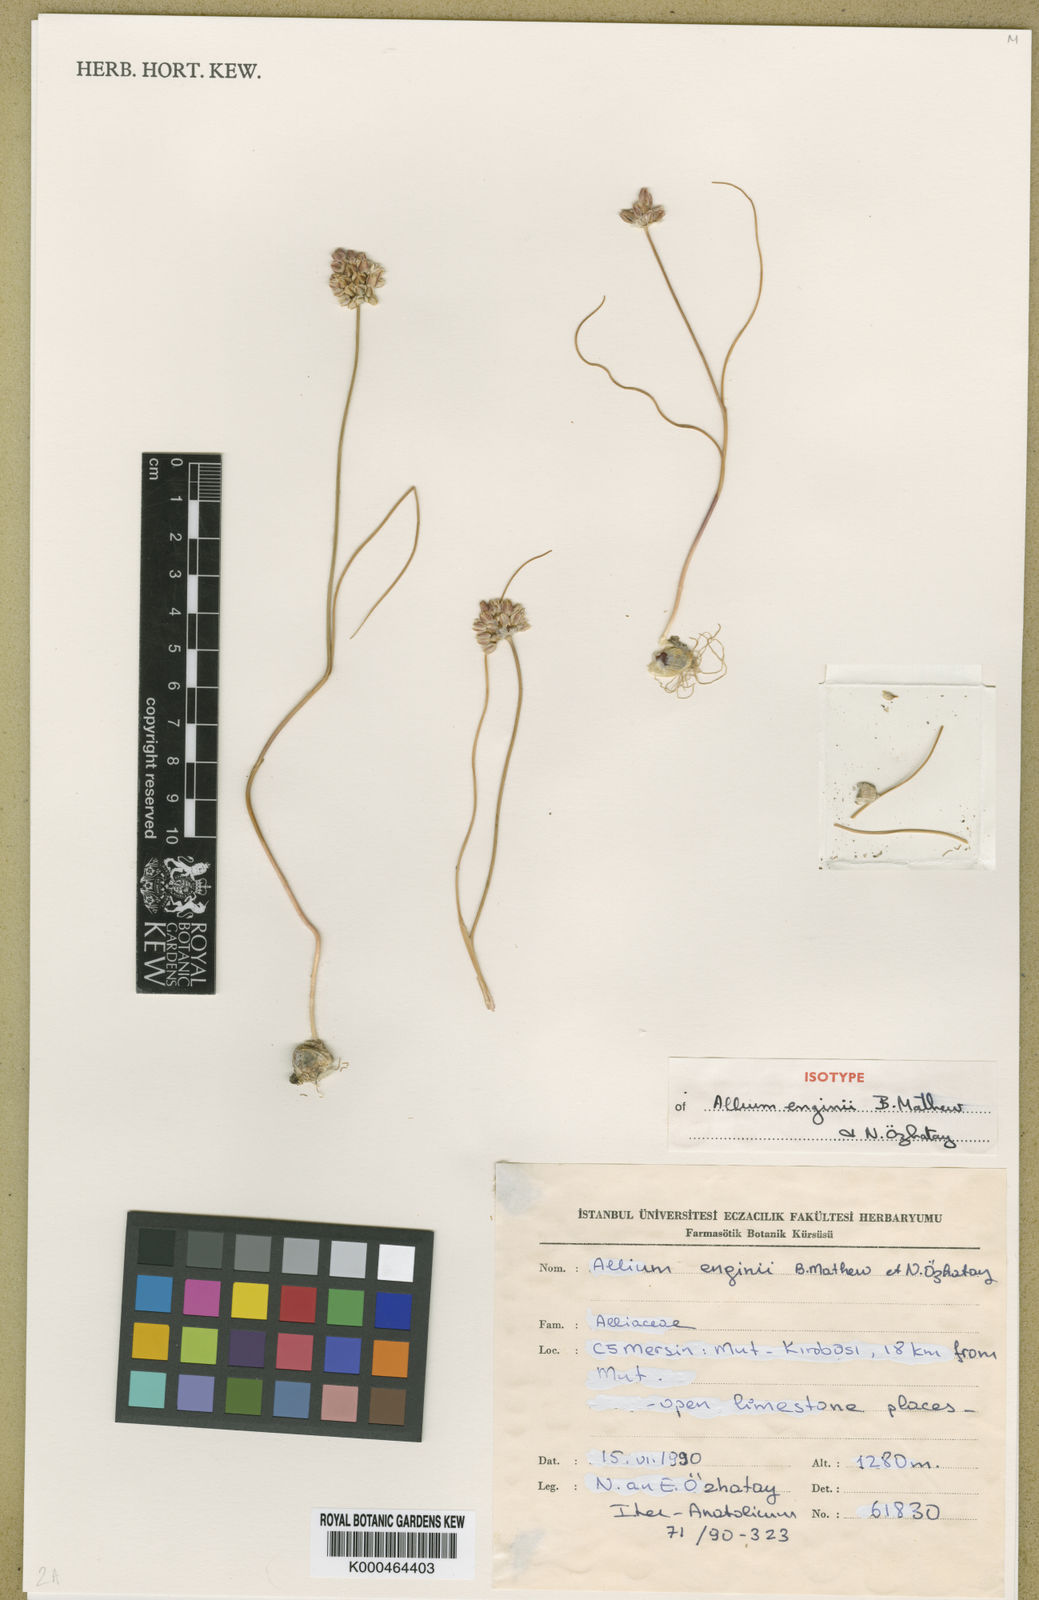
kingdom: Plantae
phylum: Tracheophyta
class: Liliopsida
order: Asparagales
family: Amaryllidaceae
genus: Allium
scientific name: Allium
